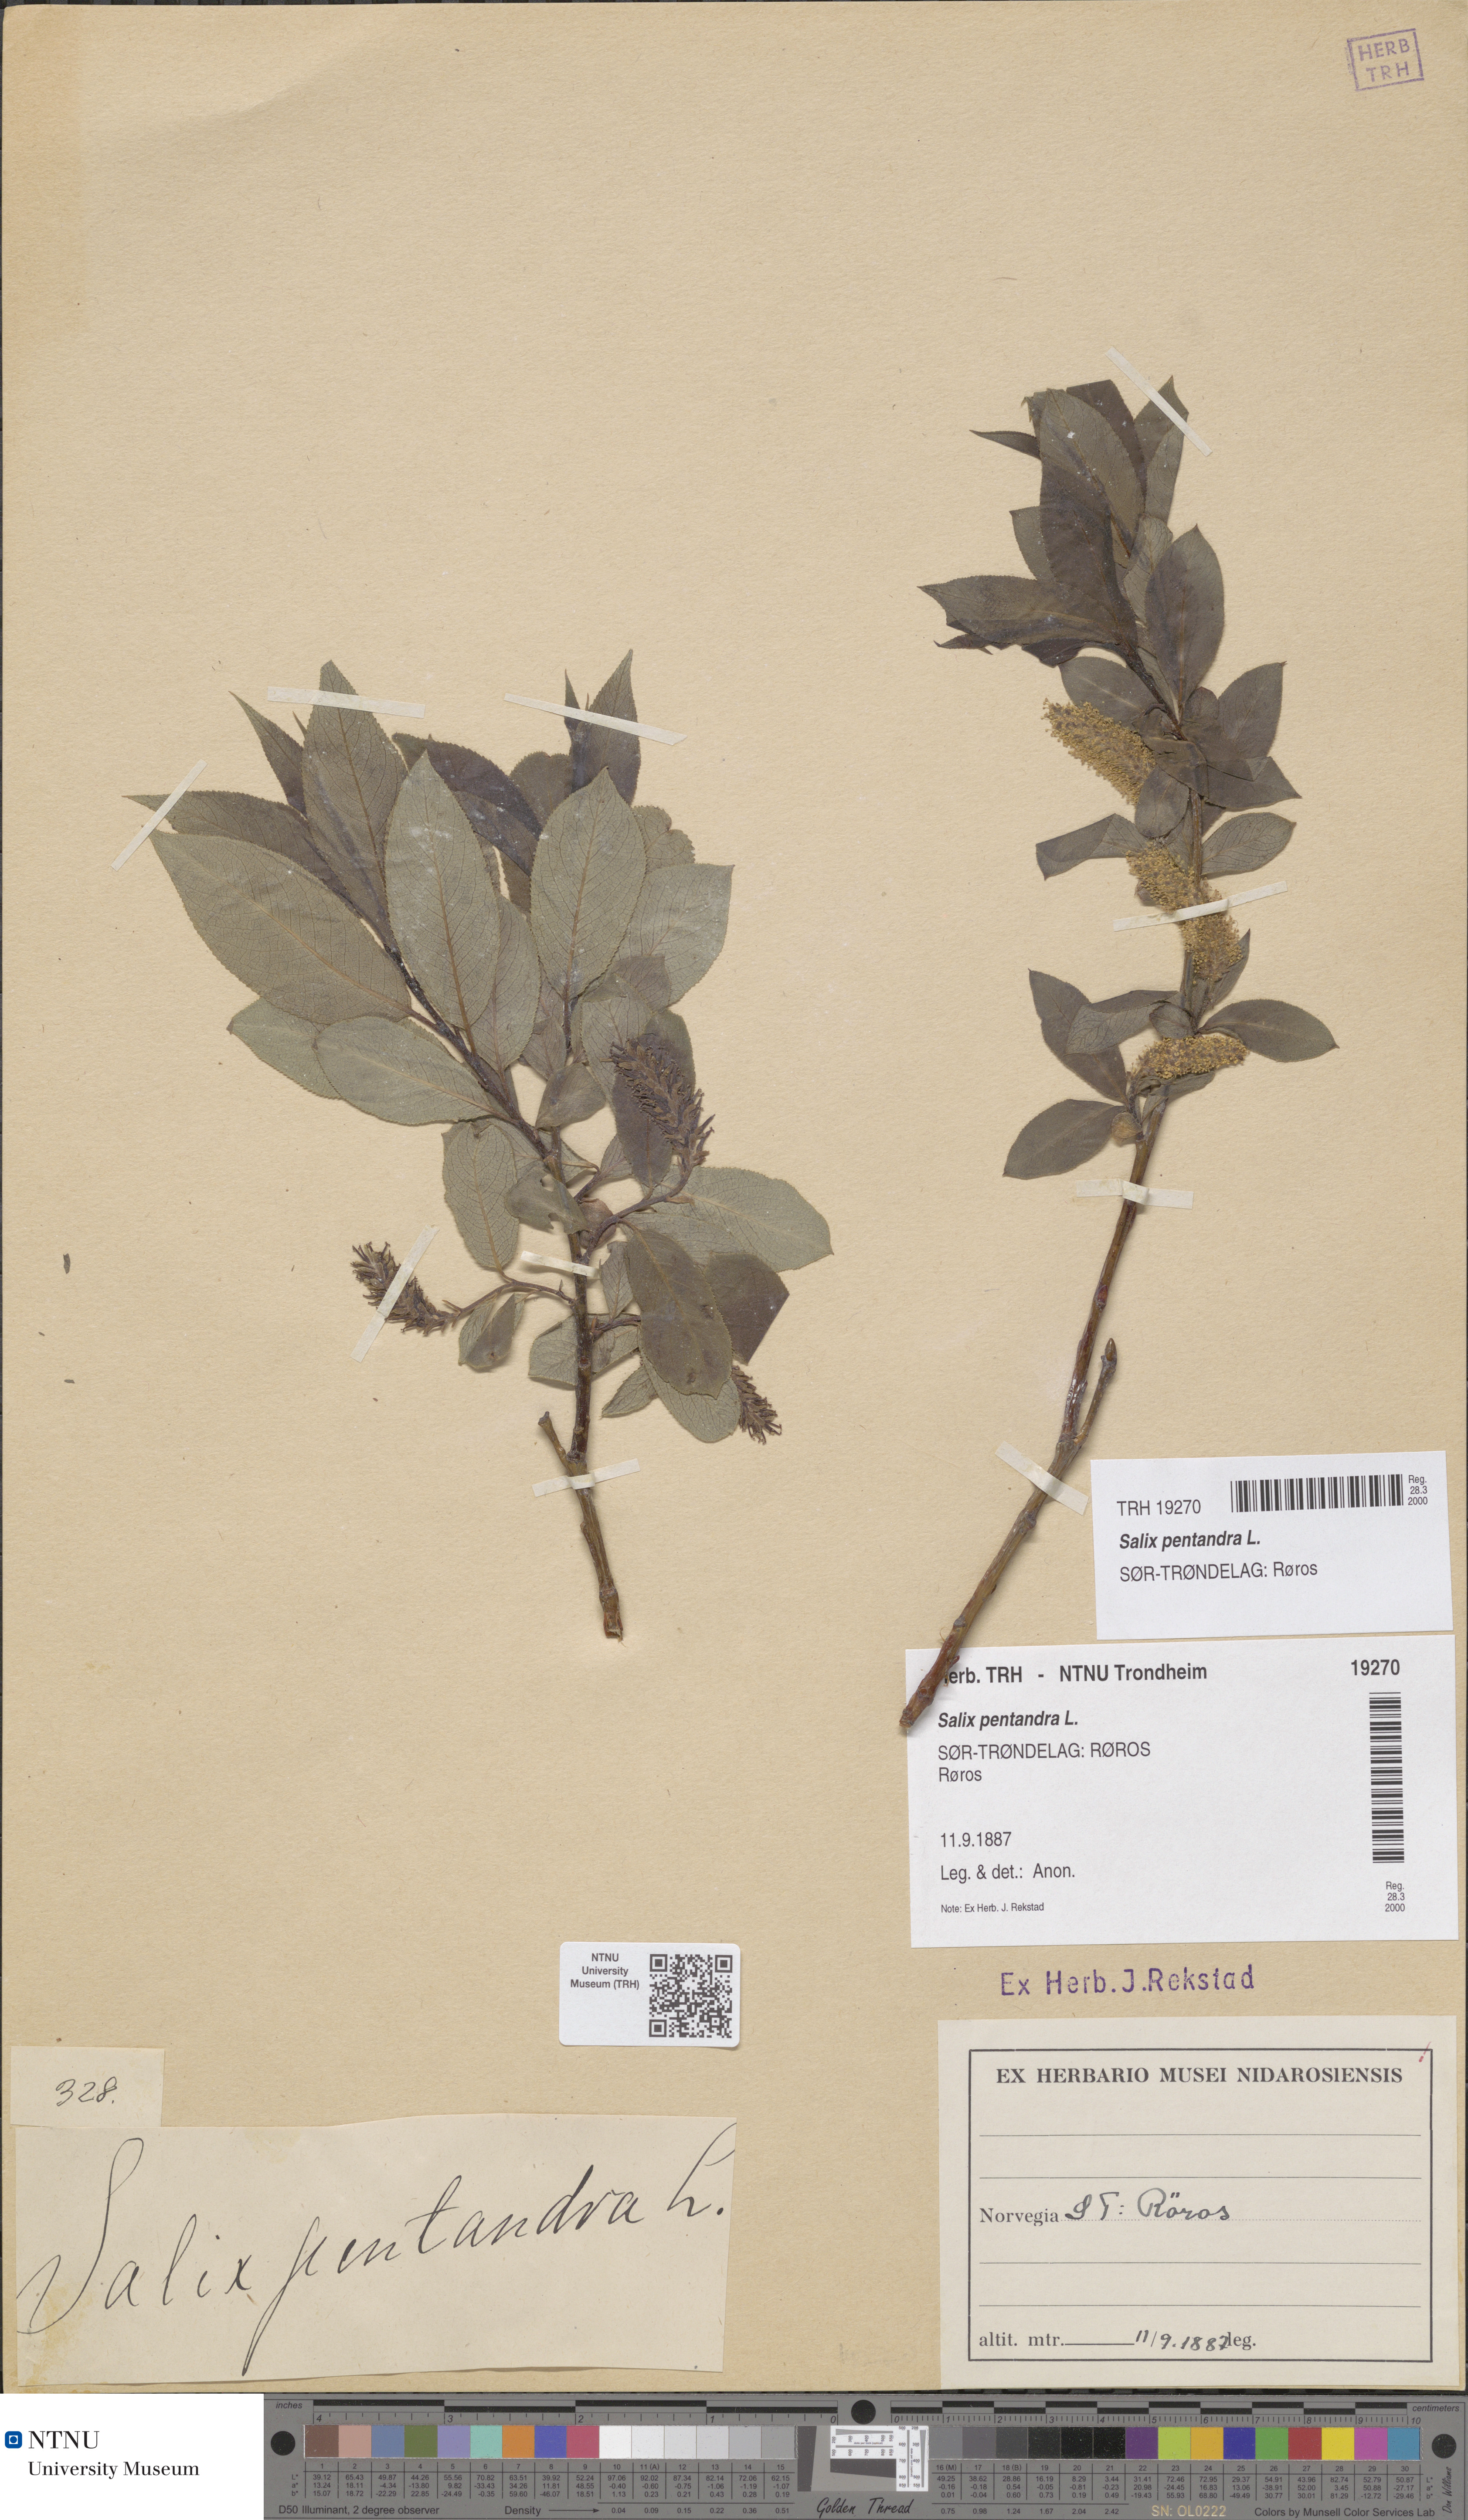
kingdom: Plantae
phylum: Tracheophyta
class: Magnoliopsida
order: Malpighiales
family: Salicaceae
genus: Salix
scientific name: Salix pentandra
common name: Bay willow
